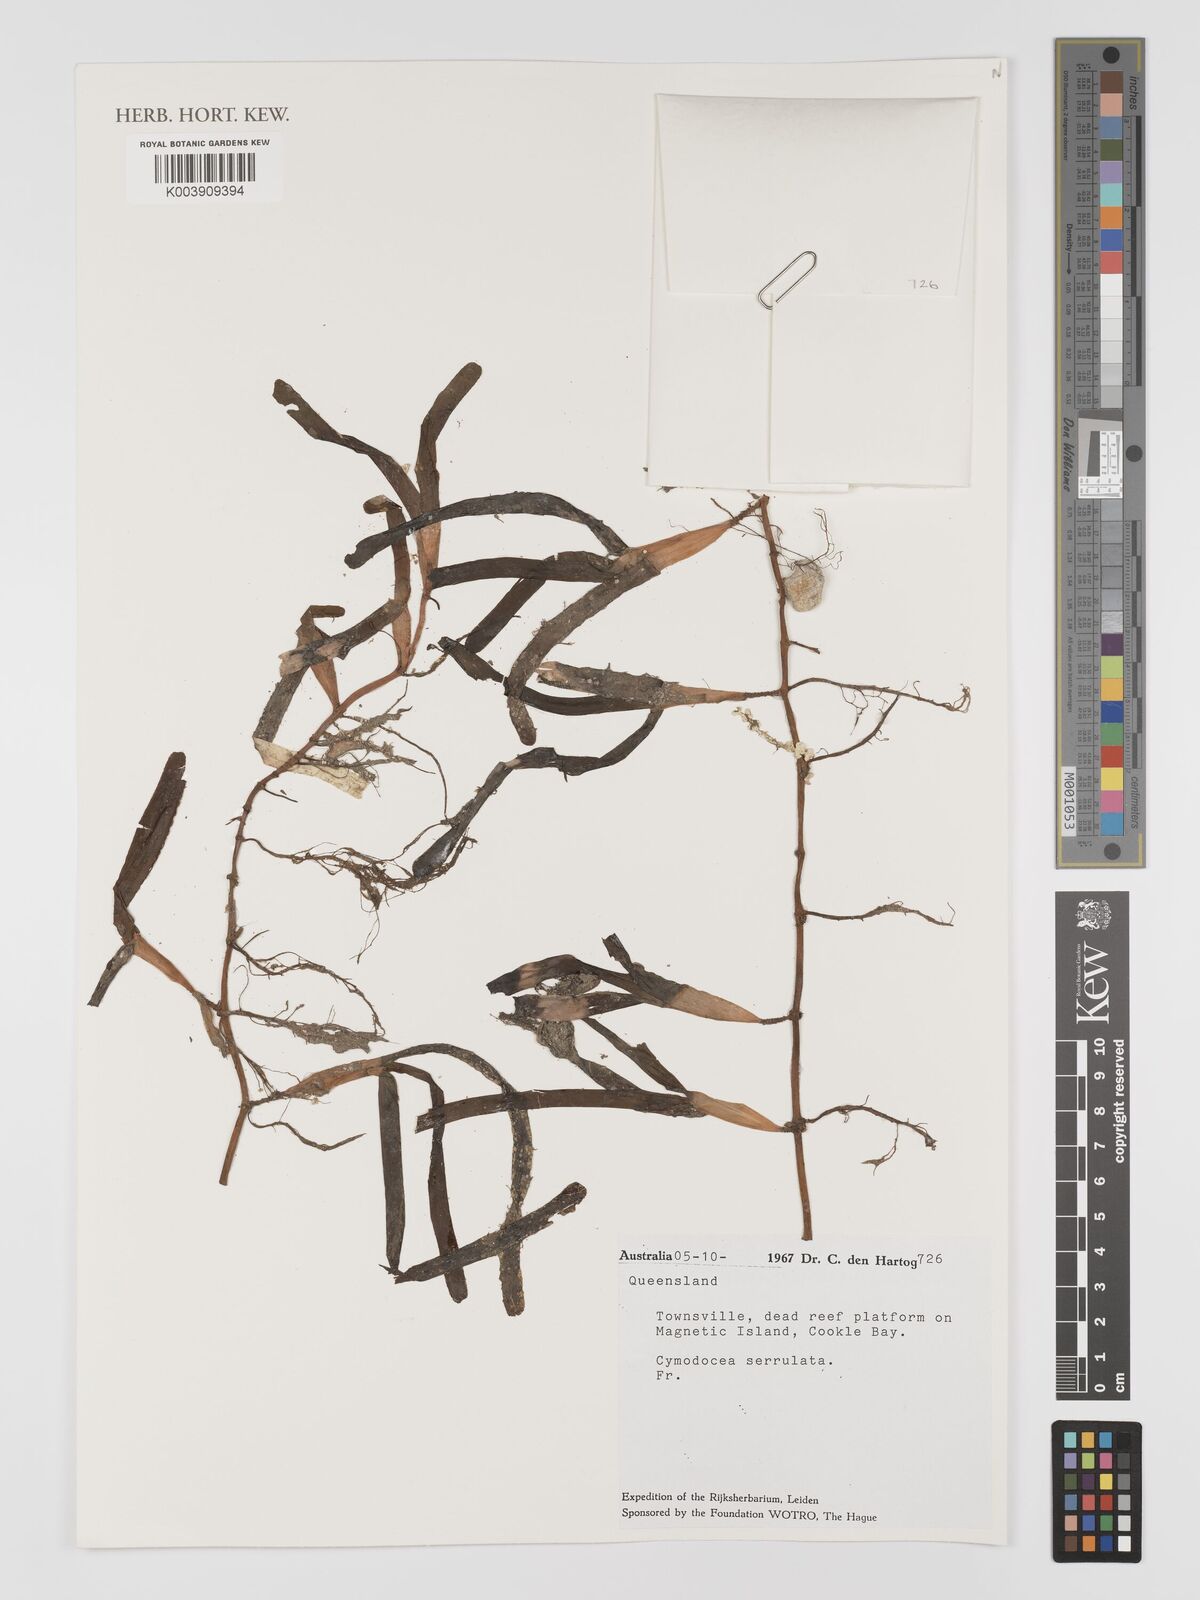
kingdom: Plantae
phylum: Tracheophyta
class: Liliopsida
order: Alismatales
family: Cymodoceaceae
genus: Oceana
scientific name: Oceana serrulata
